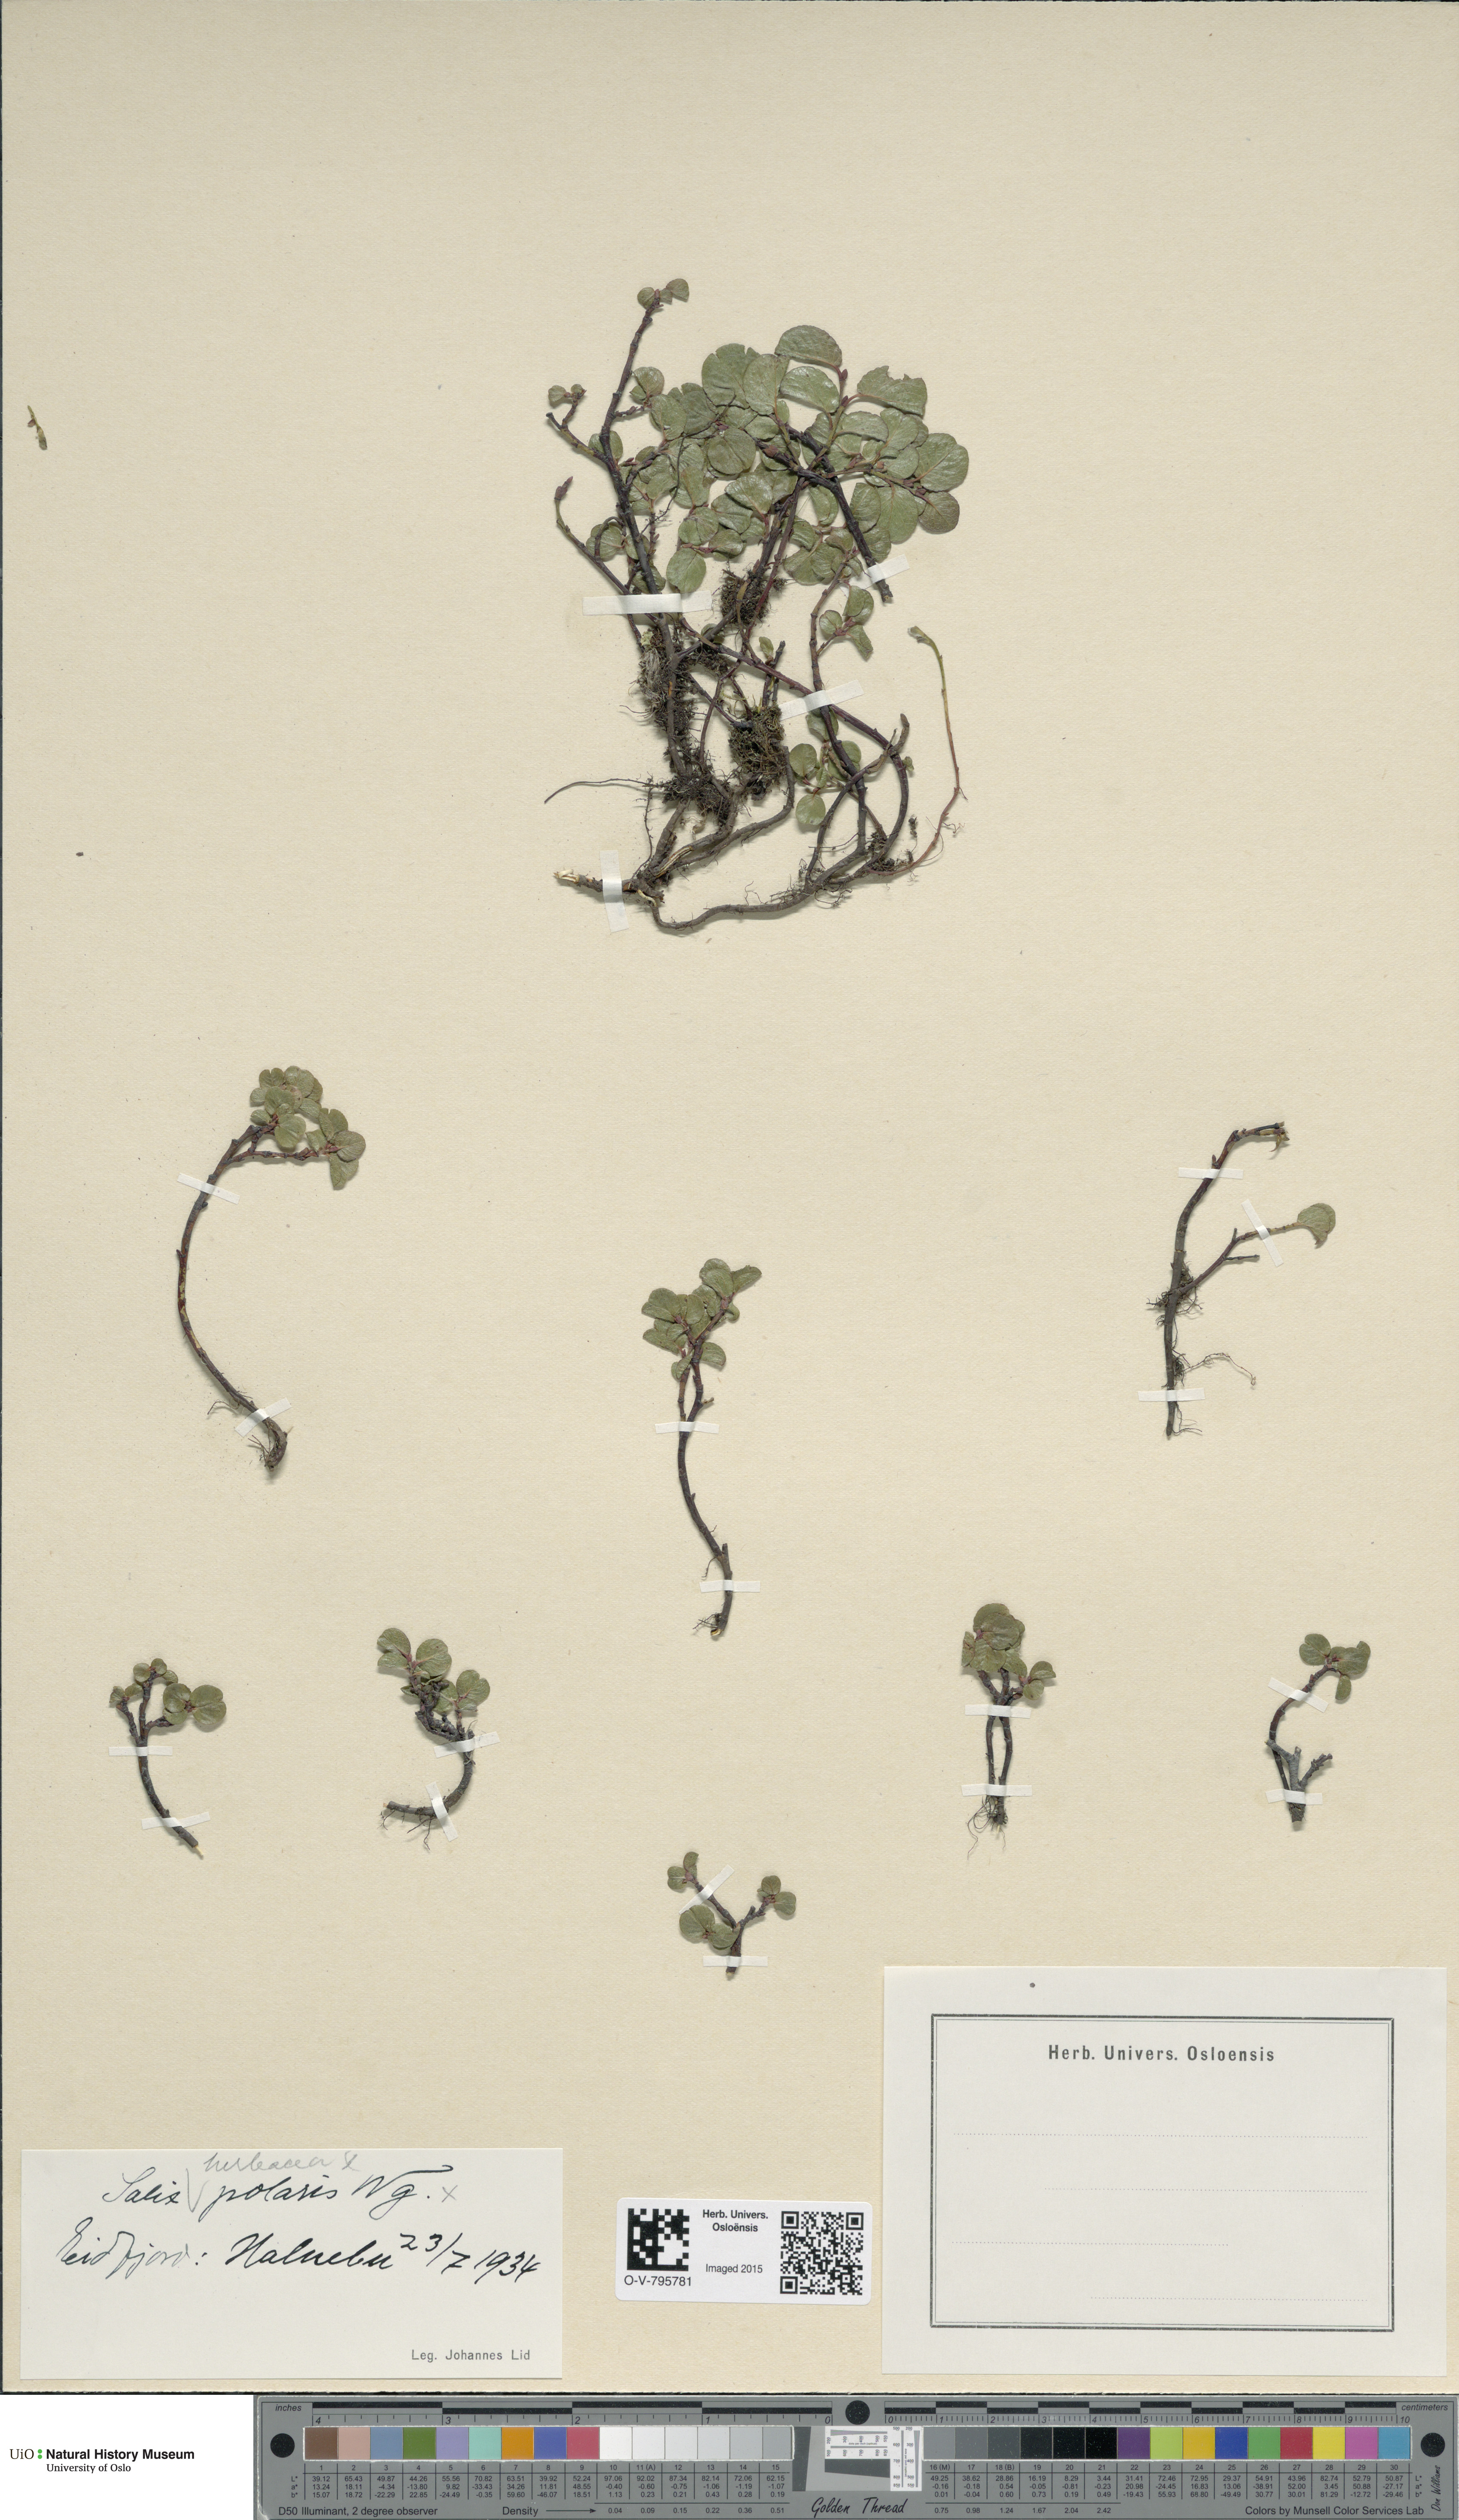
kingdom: Plantae
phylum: Tracheophyta
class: Magnoliopsida
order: Malpighiales
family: Salicaceae
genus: Salix
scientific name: Salix
